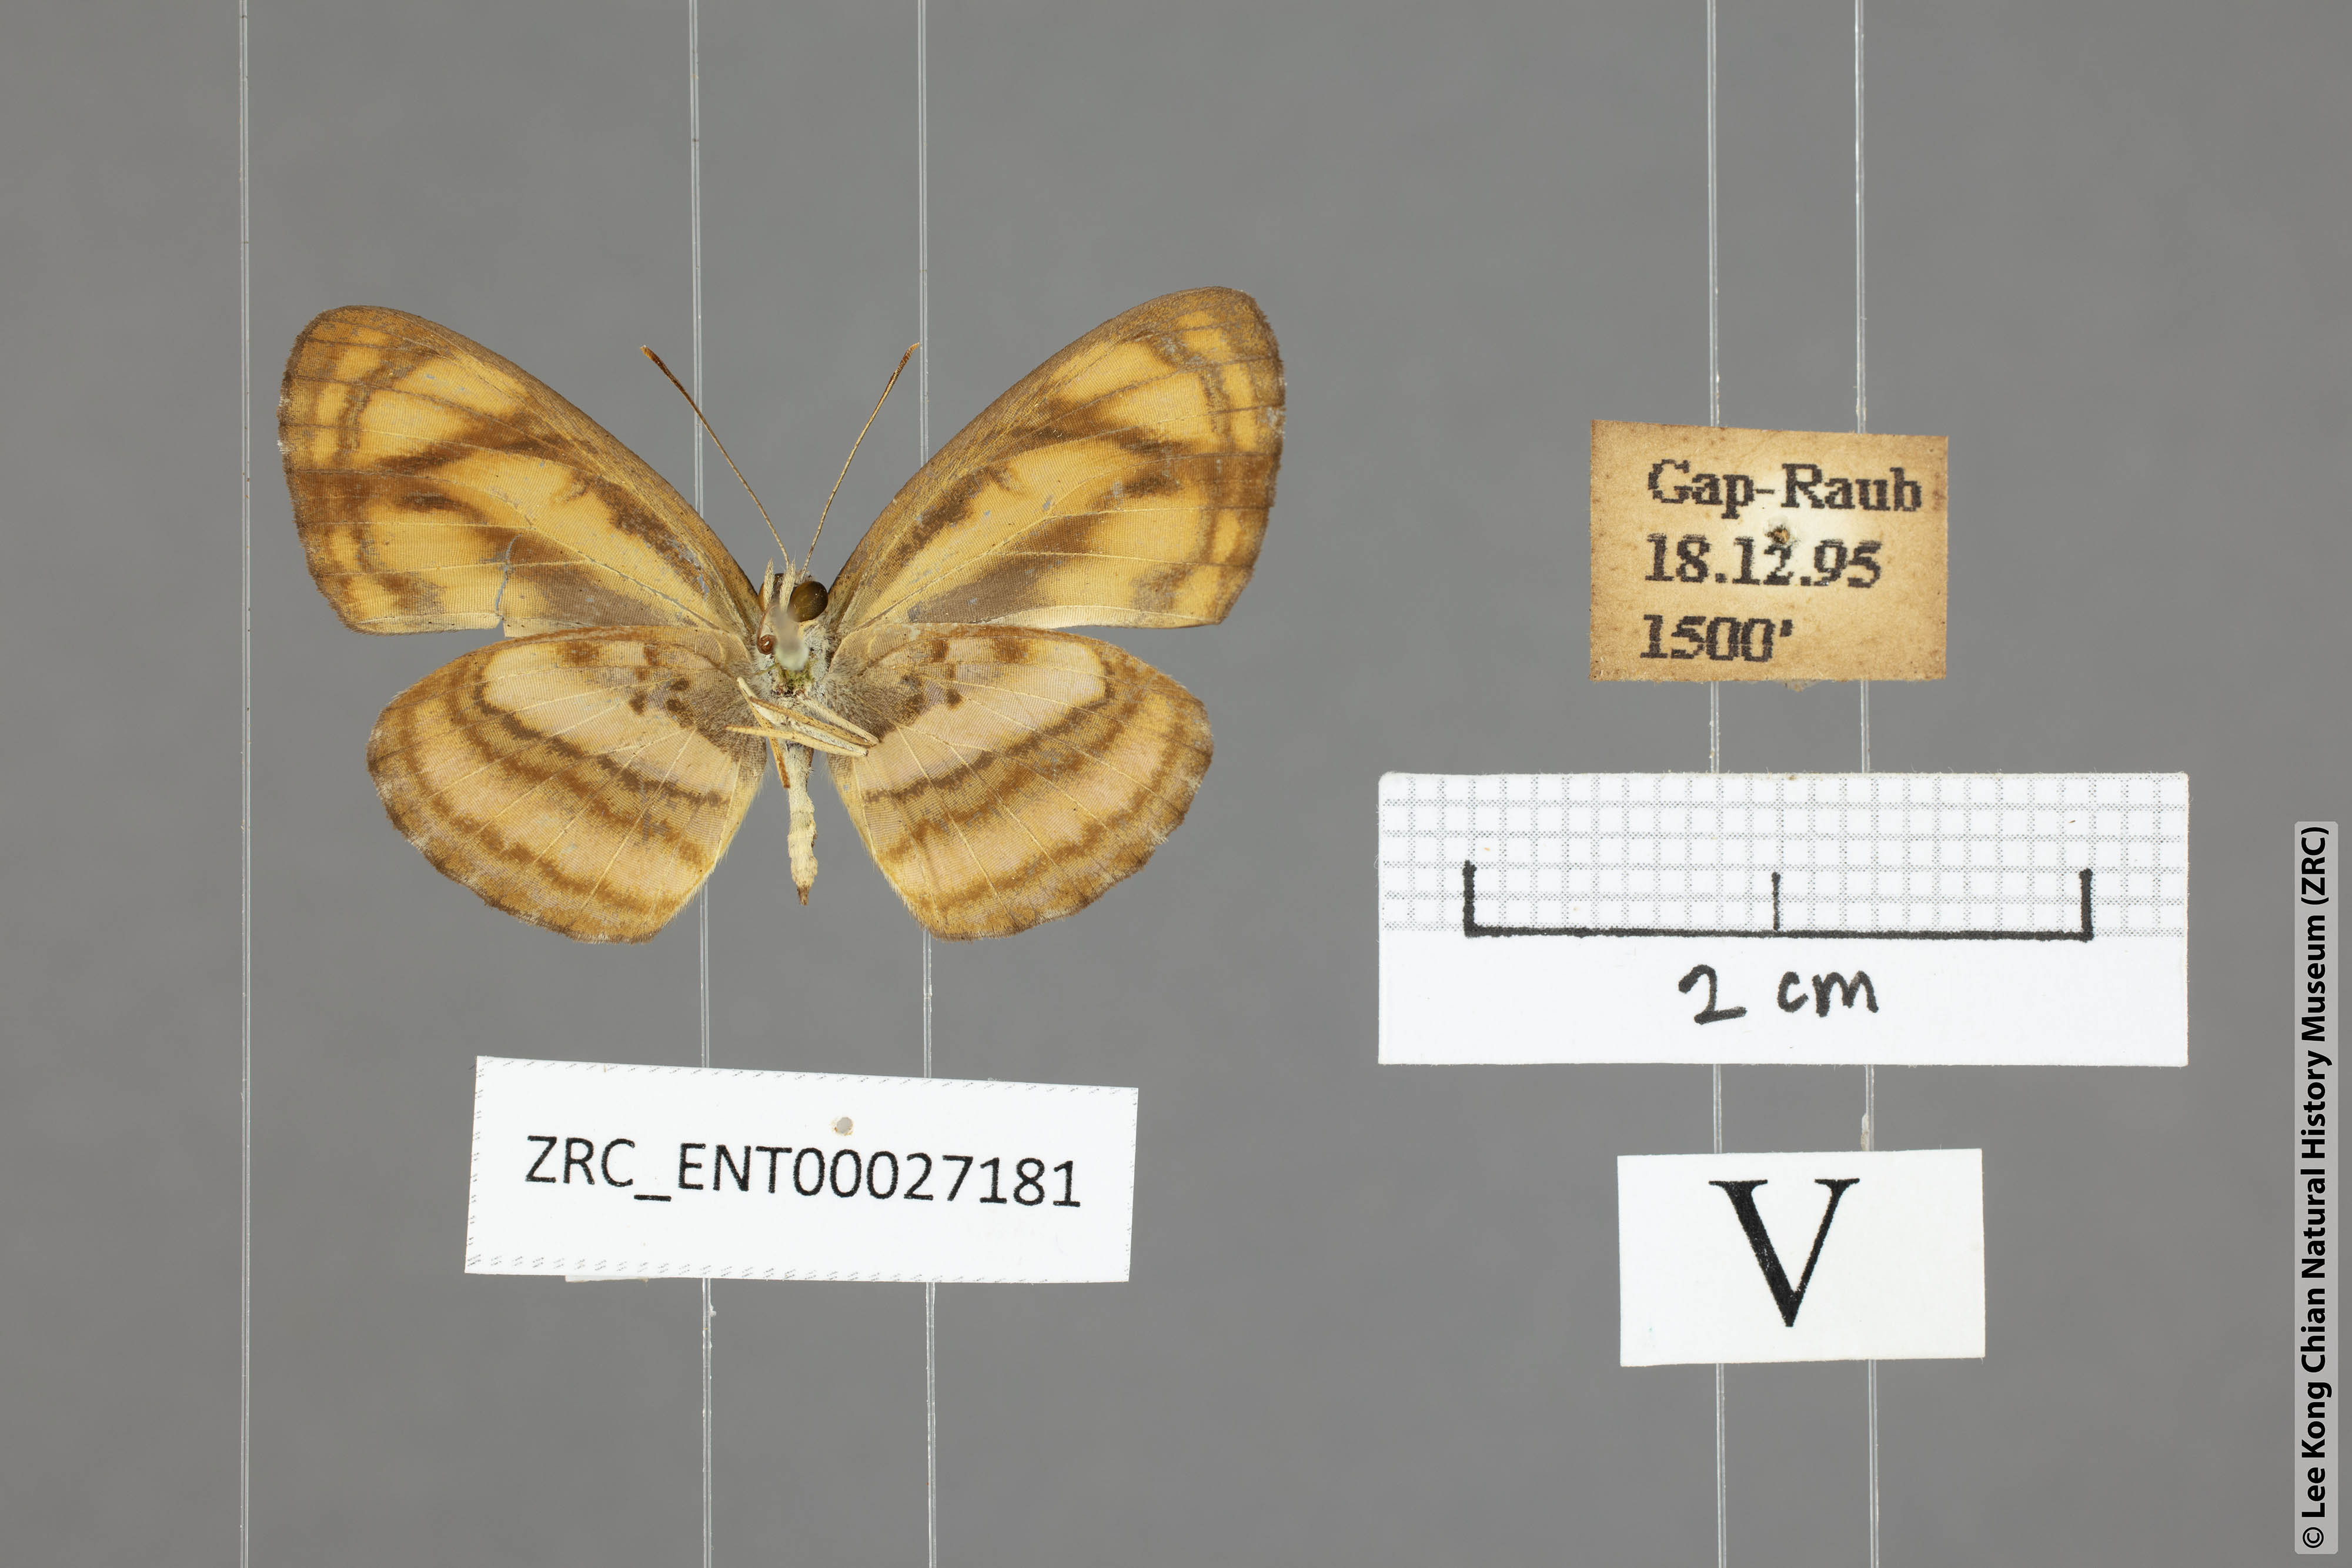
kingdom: Animalia
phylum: Arthropoda
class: Insecta
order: Lepidoptera
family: Nymphalidae
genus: Pantoporia
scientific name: Pantoporia aurelia
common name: Baby lascar
